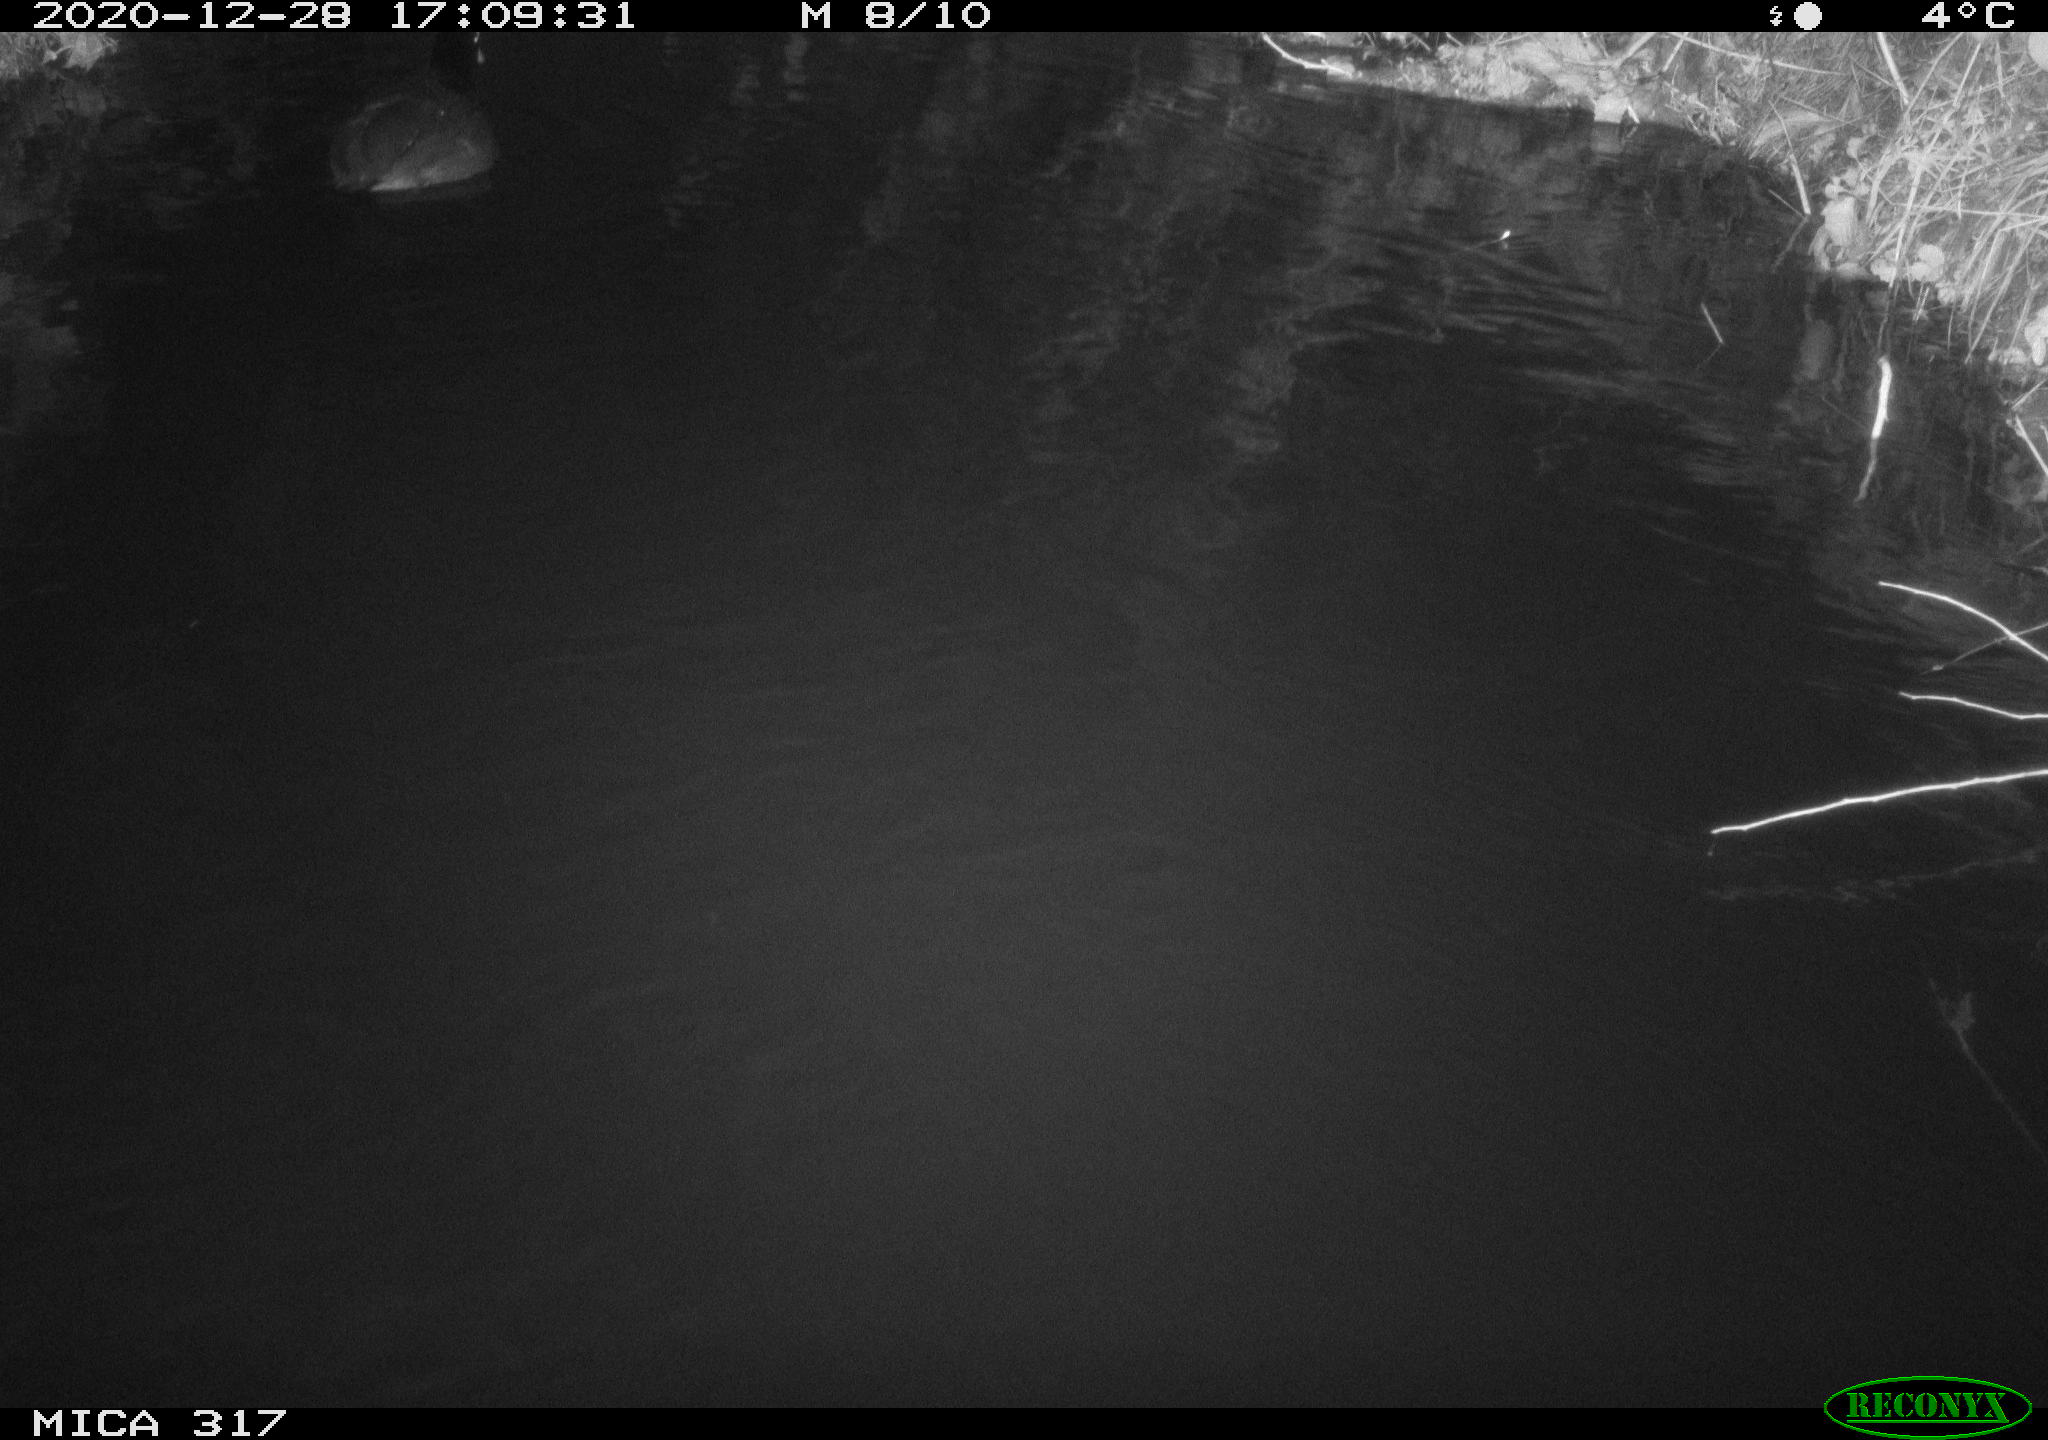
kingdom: Animalia
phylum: Chordata
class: Aves
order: Gruiformes
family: Rallidae
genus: Fulica
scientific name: Fulica atra
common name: Eurasian coot
